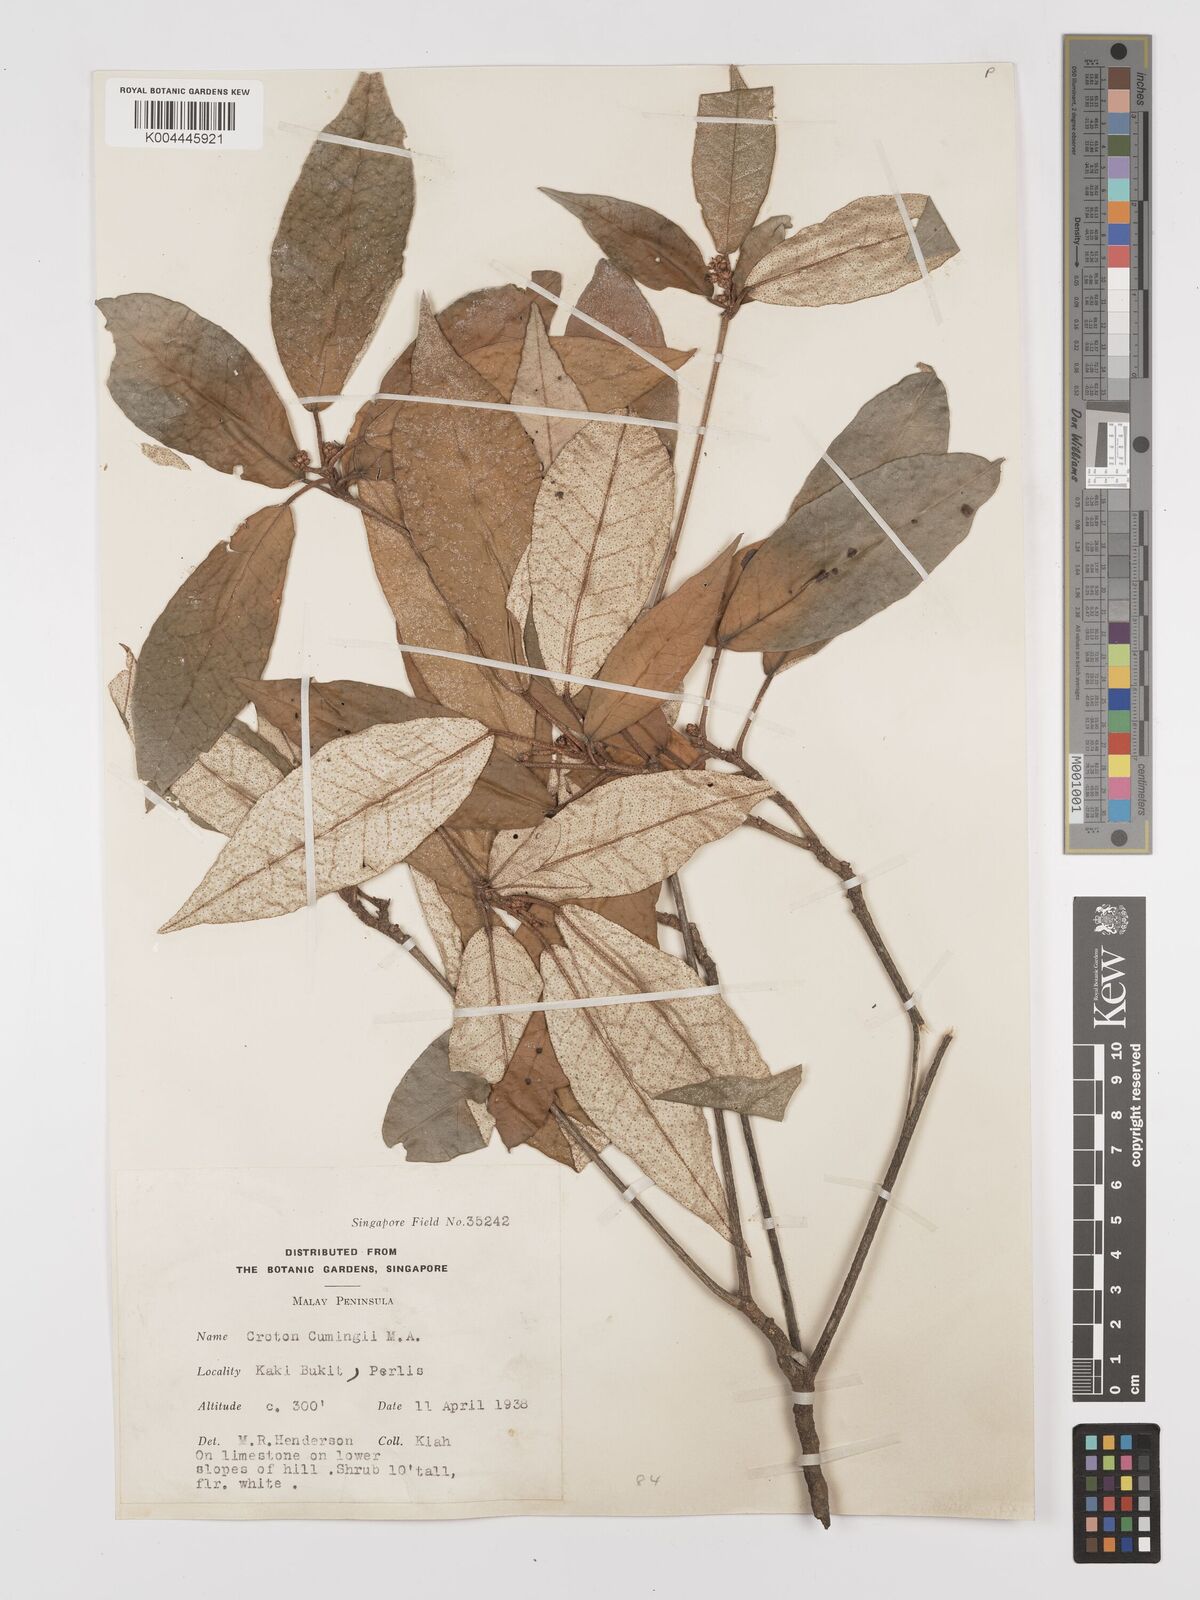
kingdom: Plantae
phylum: Tracheophyta
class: Magnoliopsida
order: Malpighiales
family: Euphorbiaceae
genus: Croton
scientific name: Croton cascarilloides
